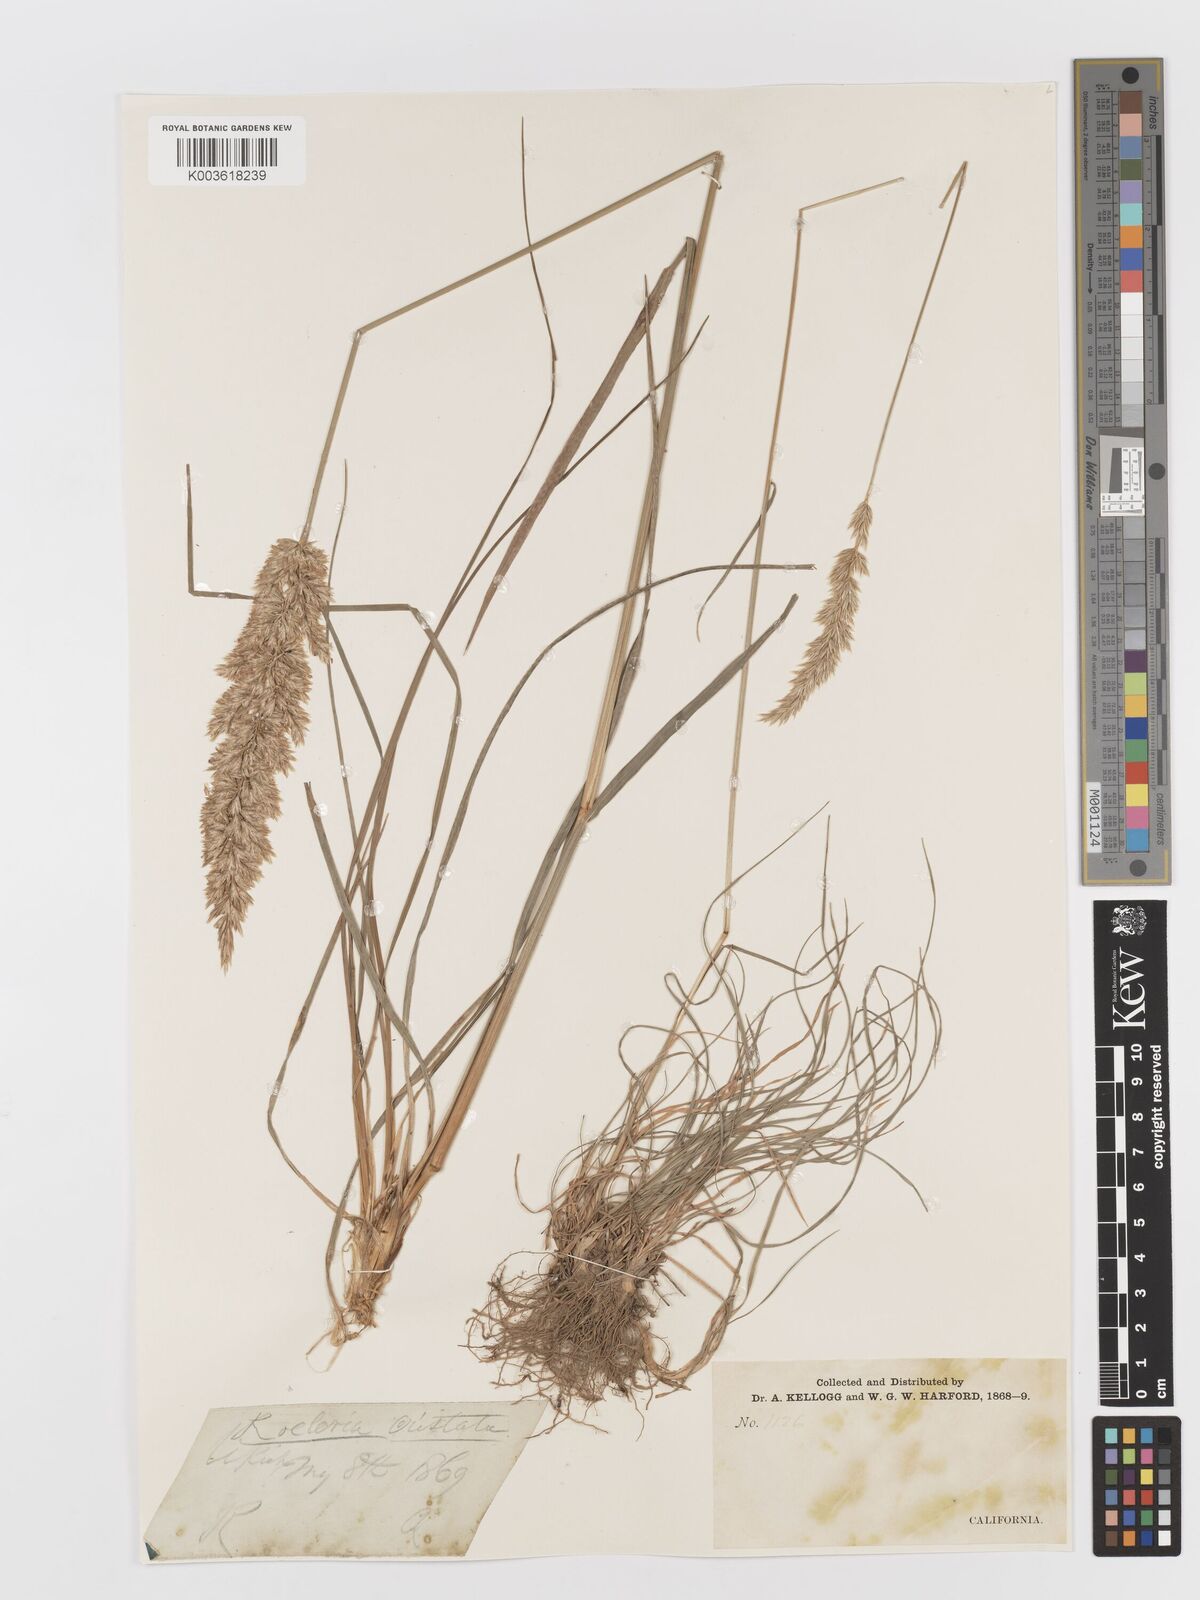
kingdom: Plantae
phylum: Tracheophyta
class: Liliopsida
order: Poales
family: Poaceae
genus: Koeleria
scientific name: Koeleria macrantha
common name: Crested hair-grass
